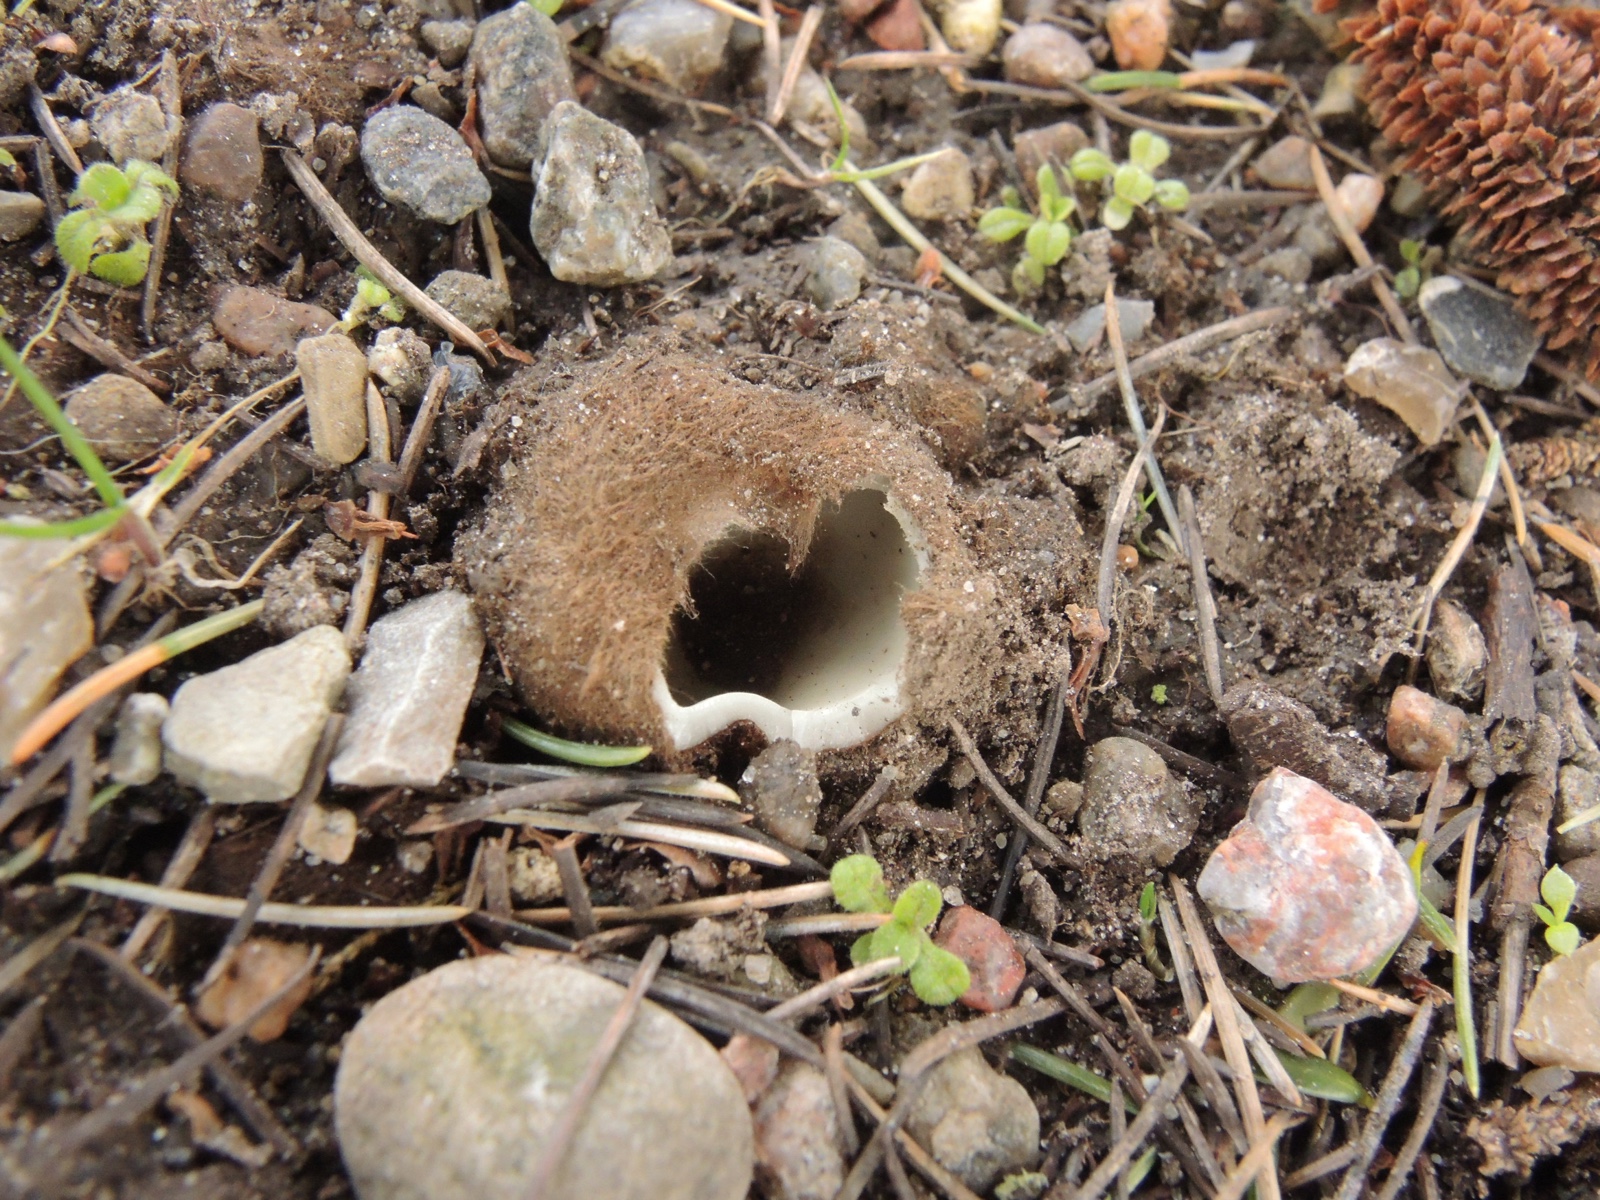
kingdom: Fungi
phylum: Ascomycota
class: Pezizomycetes
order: Pezizales
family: Pyronemataceae
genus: Geopora
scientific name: Geopora sumneriana
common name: vår-jordbæger
